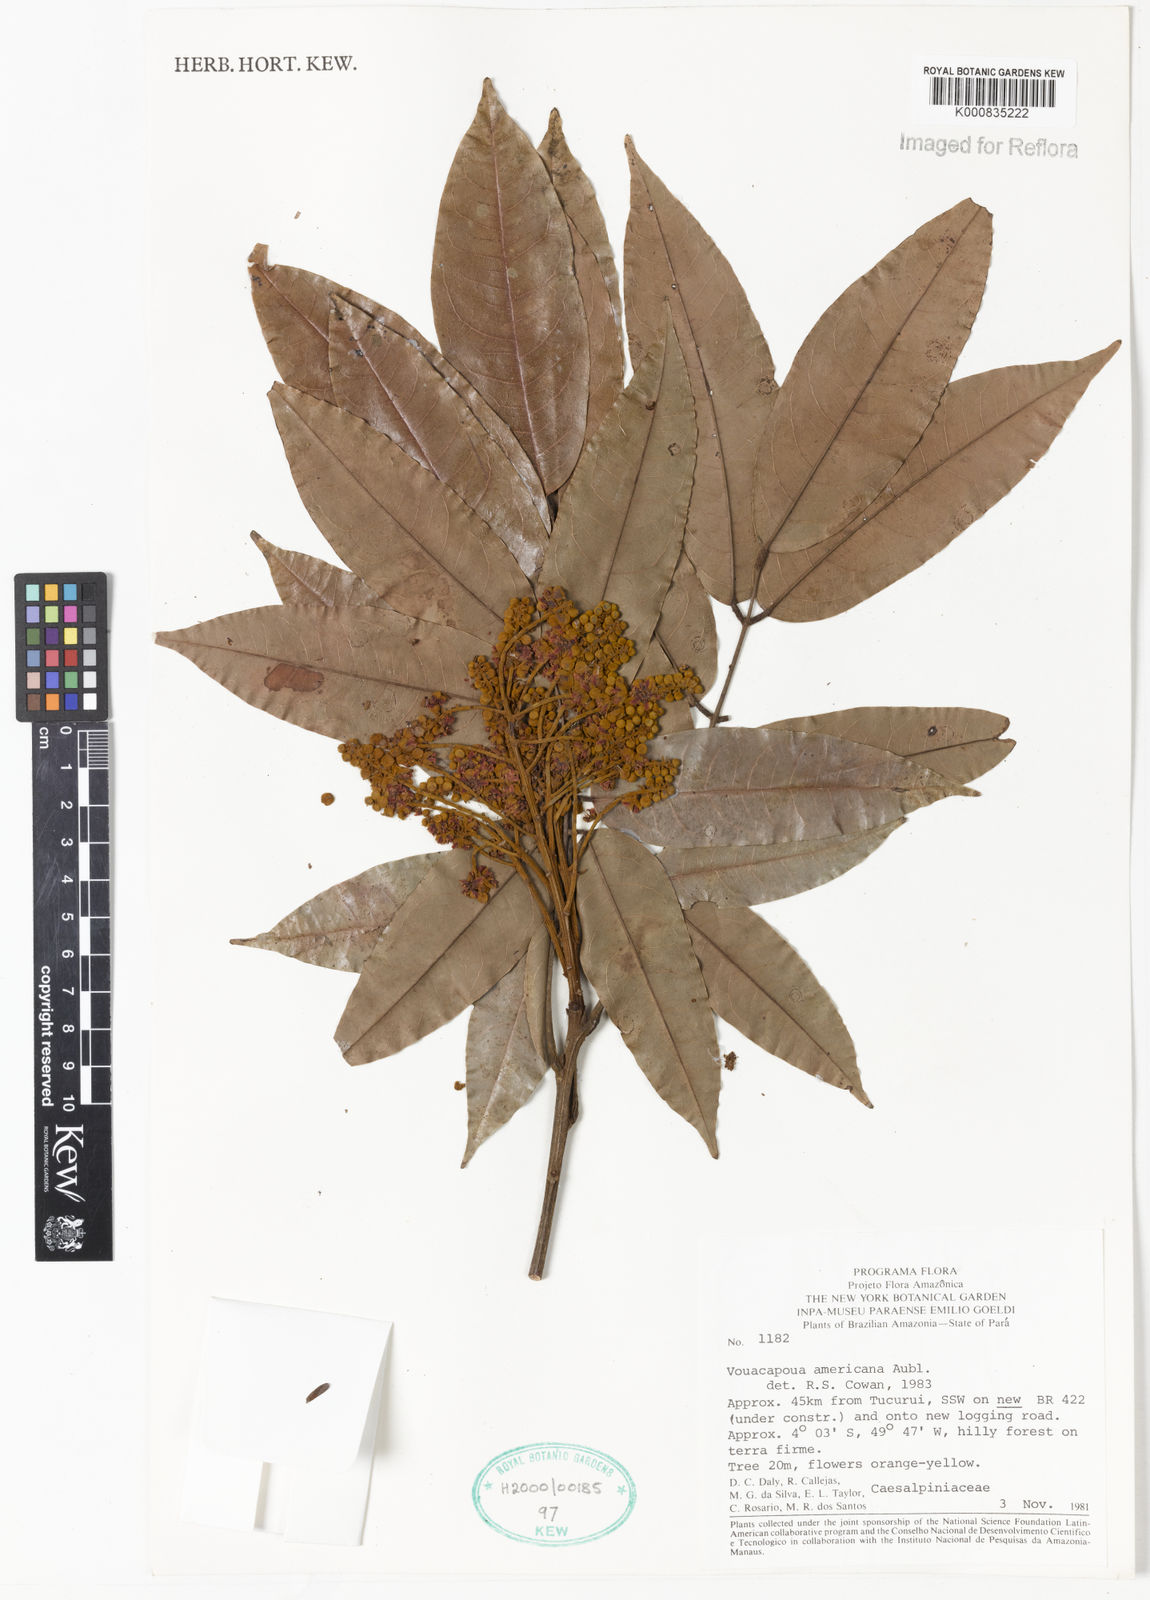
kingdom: Plantae
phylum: Tracheophyta
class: Magnoliopsida
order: Fabales
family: Fabaceae
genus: Vouacapoua
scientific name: Vouacapoua americana
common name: Partridgewood
